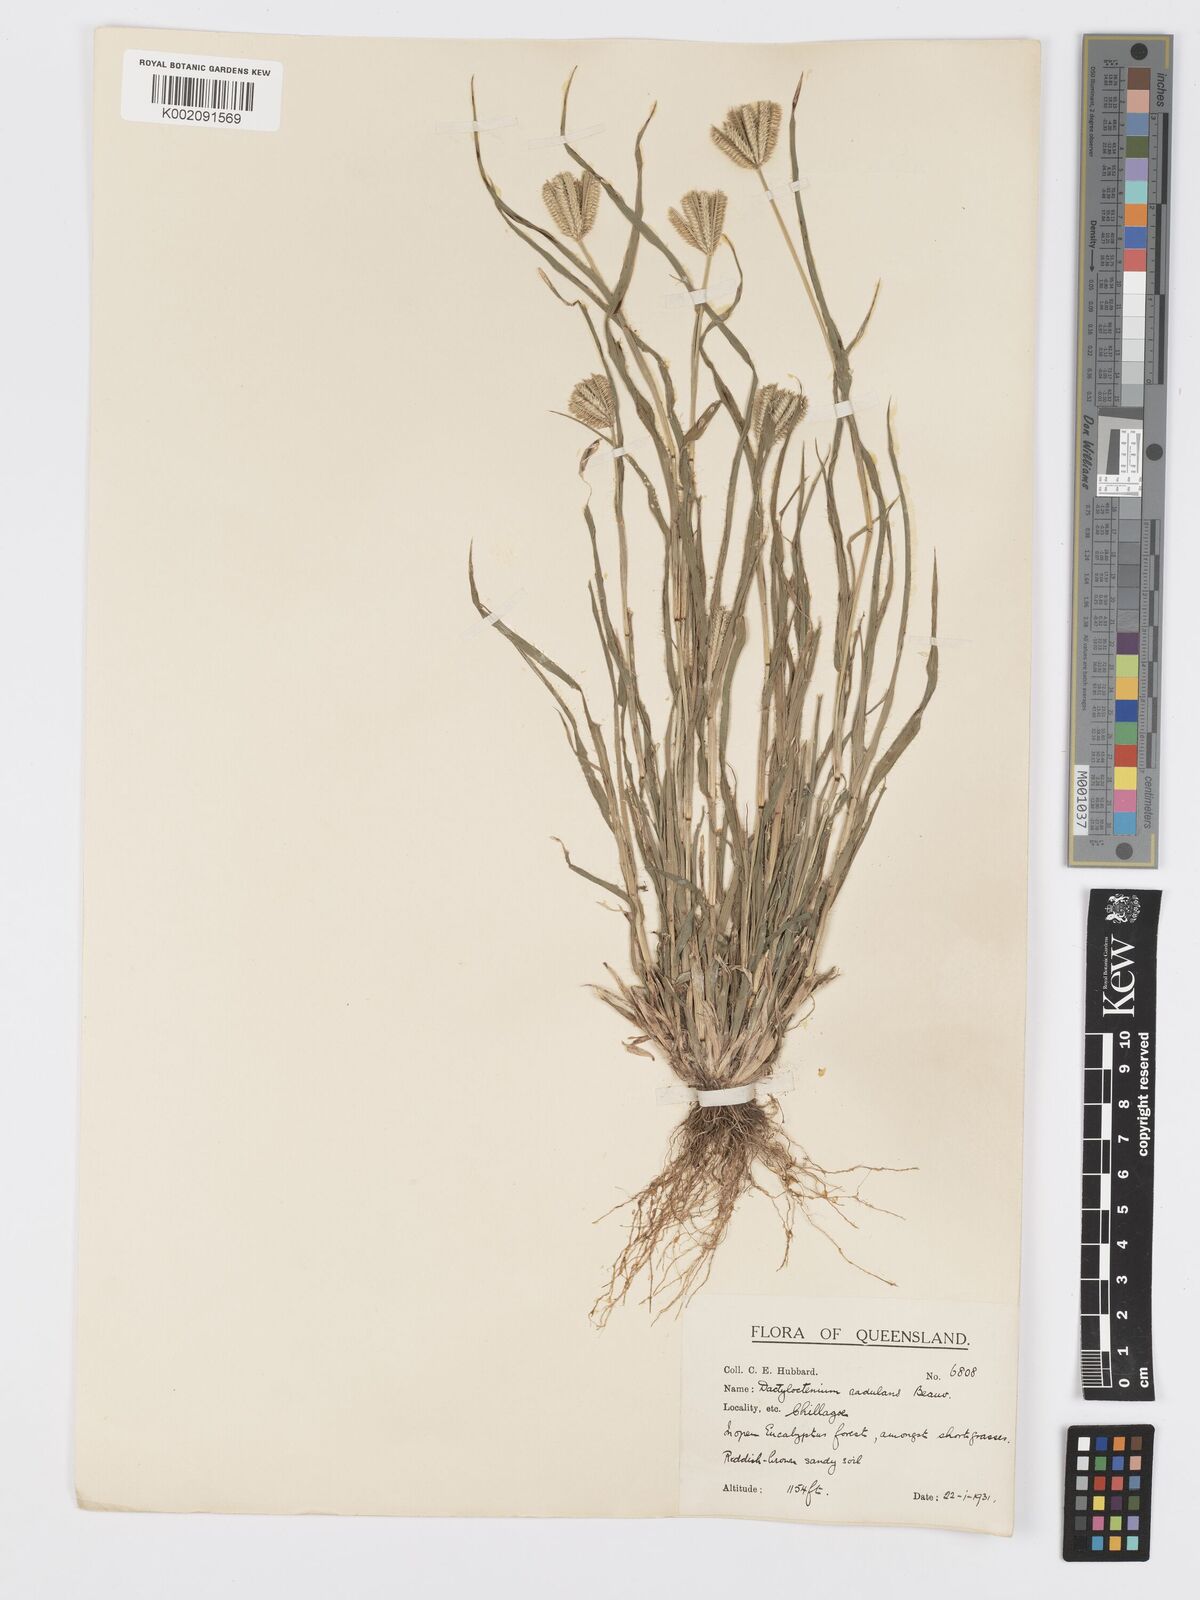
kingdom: Plantae
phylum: Tracheophyta
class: Liliopsida
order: Poales
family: Poaceae
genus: Dactyloctenium
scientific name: Dactyloctenium radulans
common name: Button-grass
